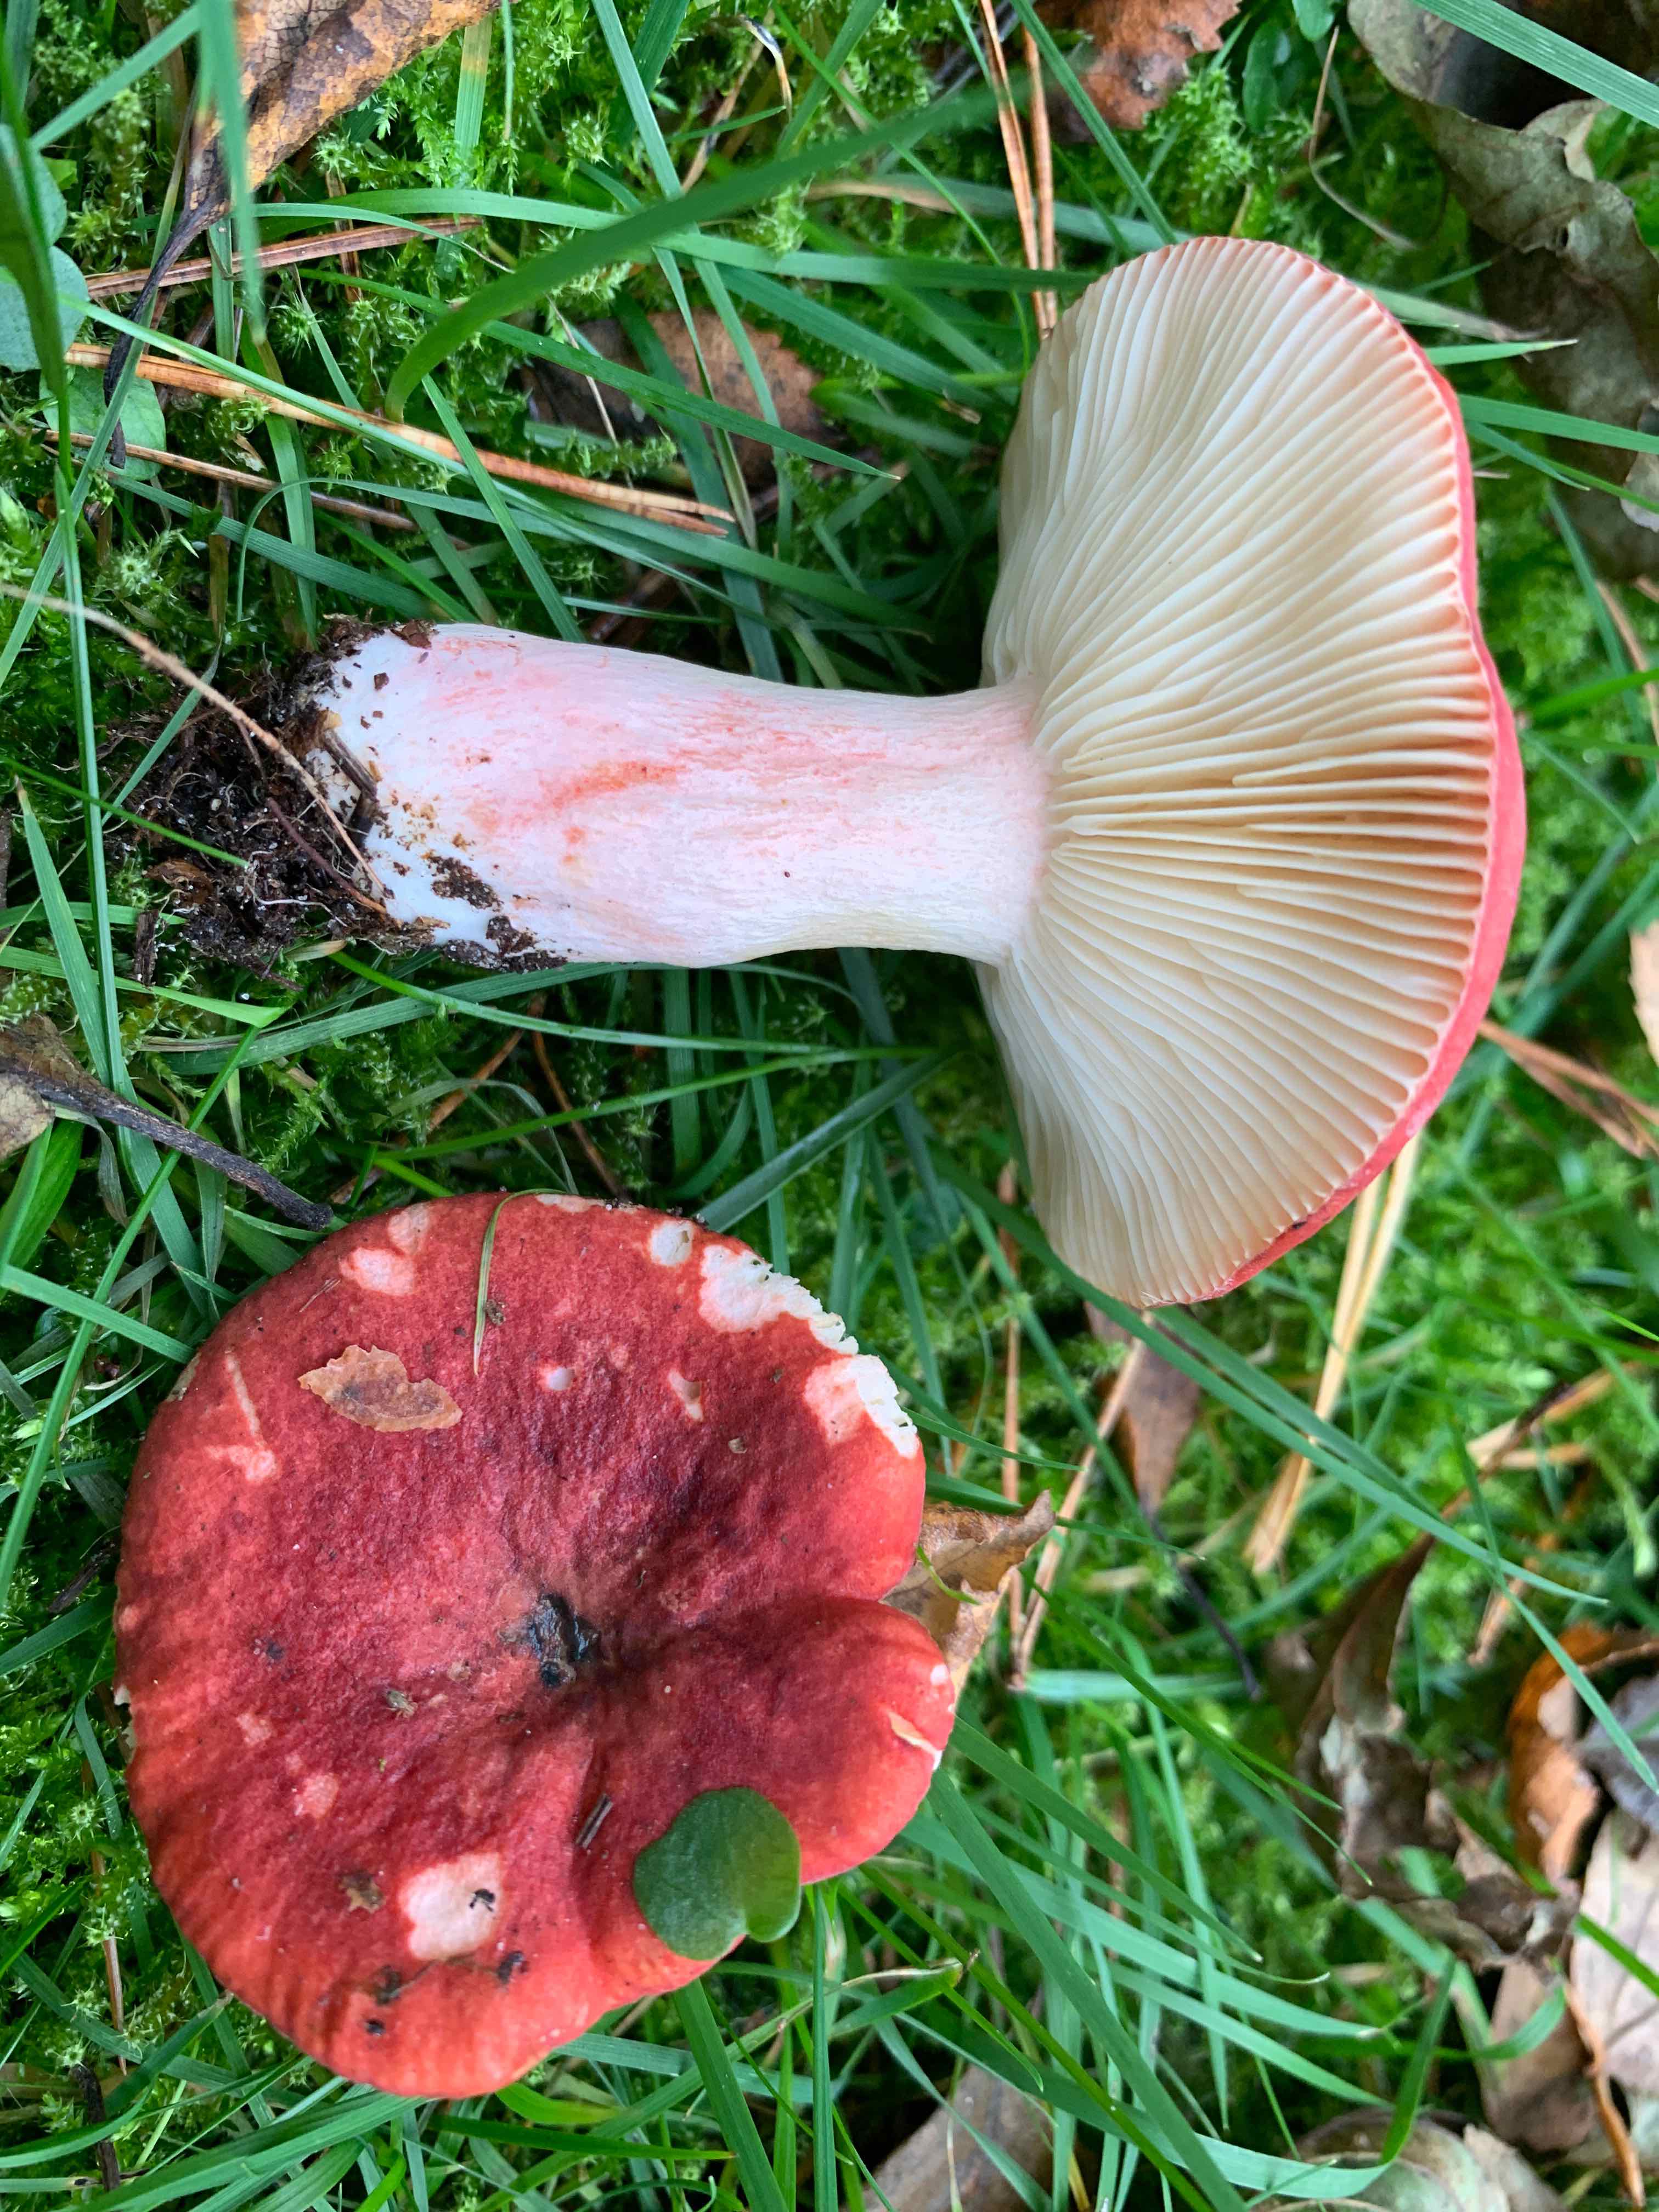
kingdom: Fungi
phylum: Basidiomycota
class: Agaricomycetes
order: Russulales
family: Russulaceae
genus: Russula
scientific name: Russula sanguinea
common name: blodrød skørhat
